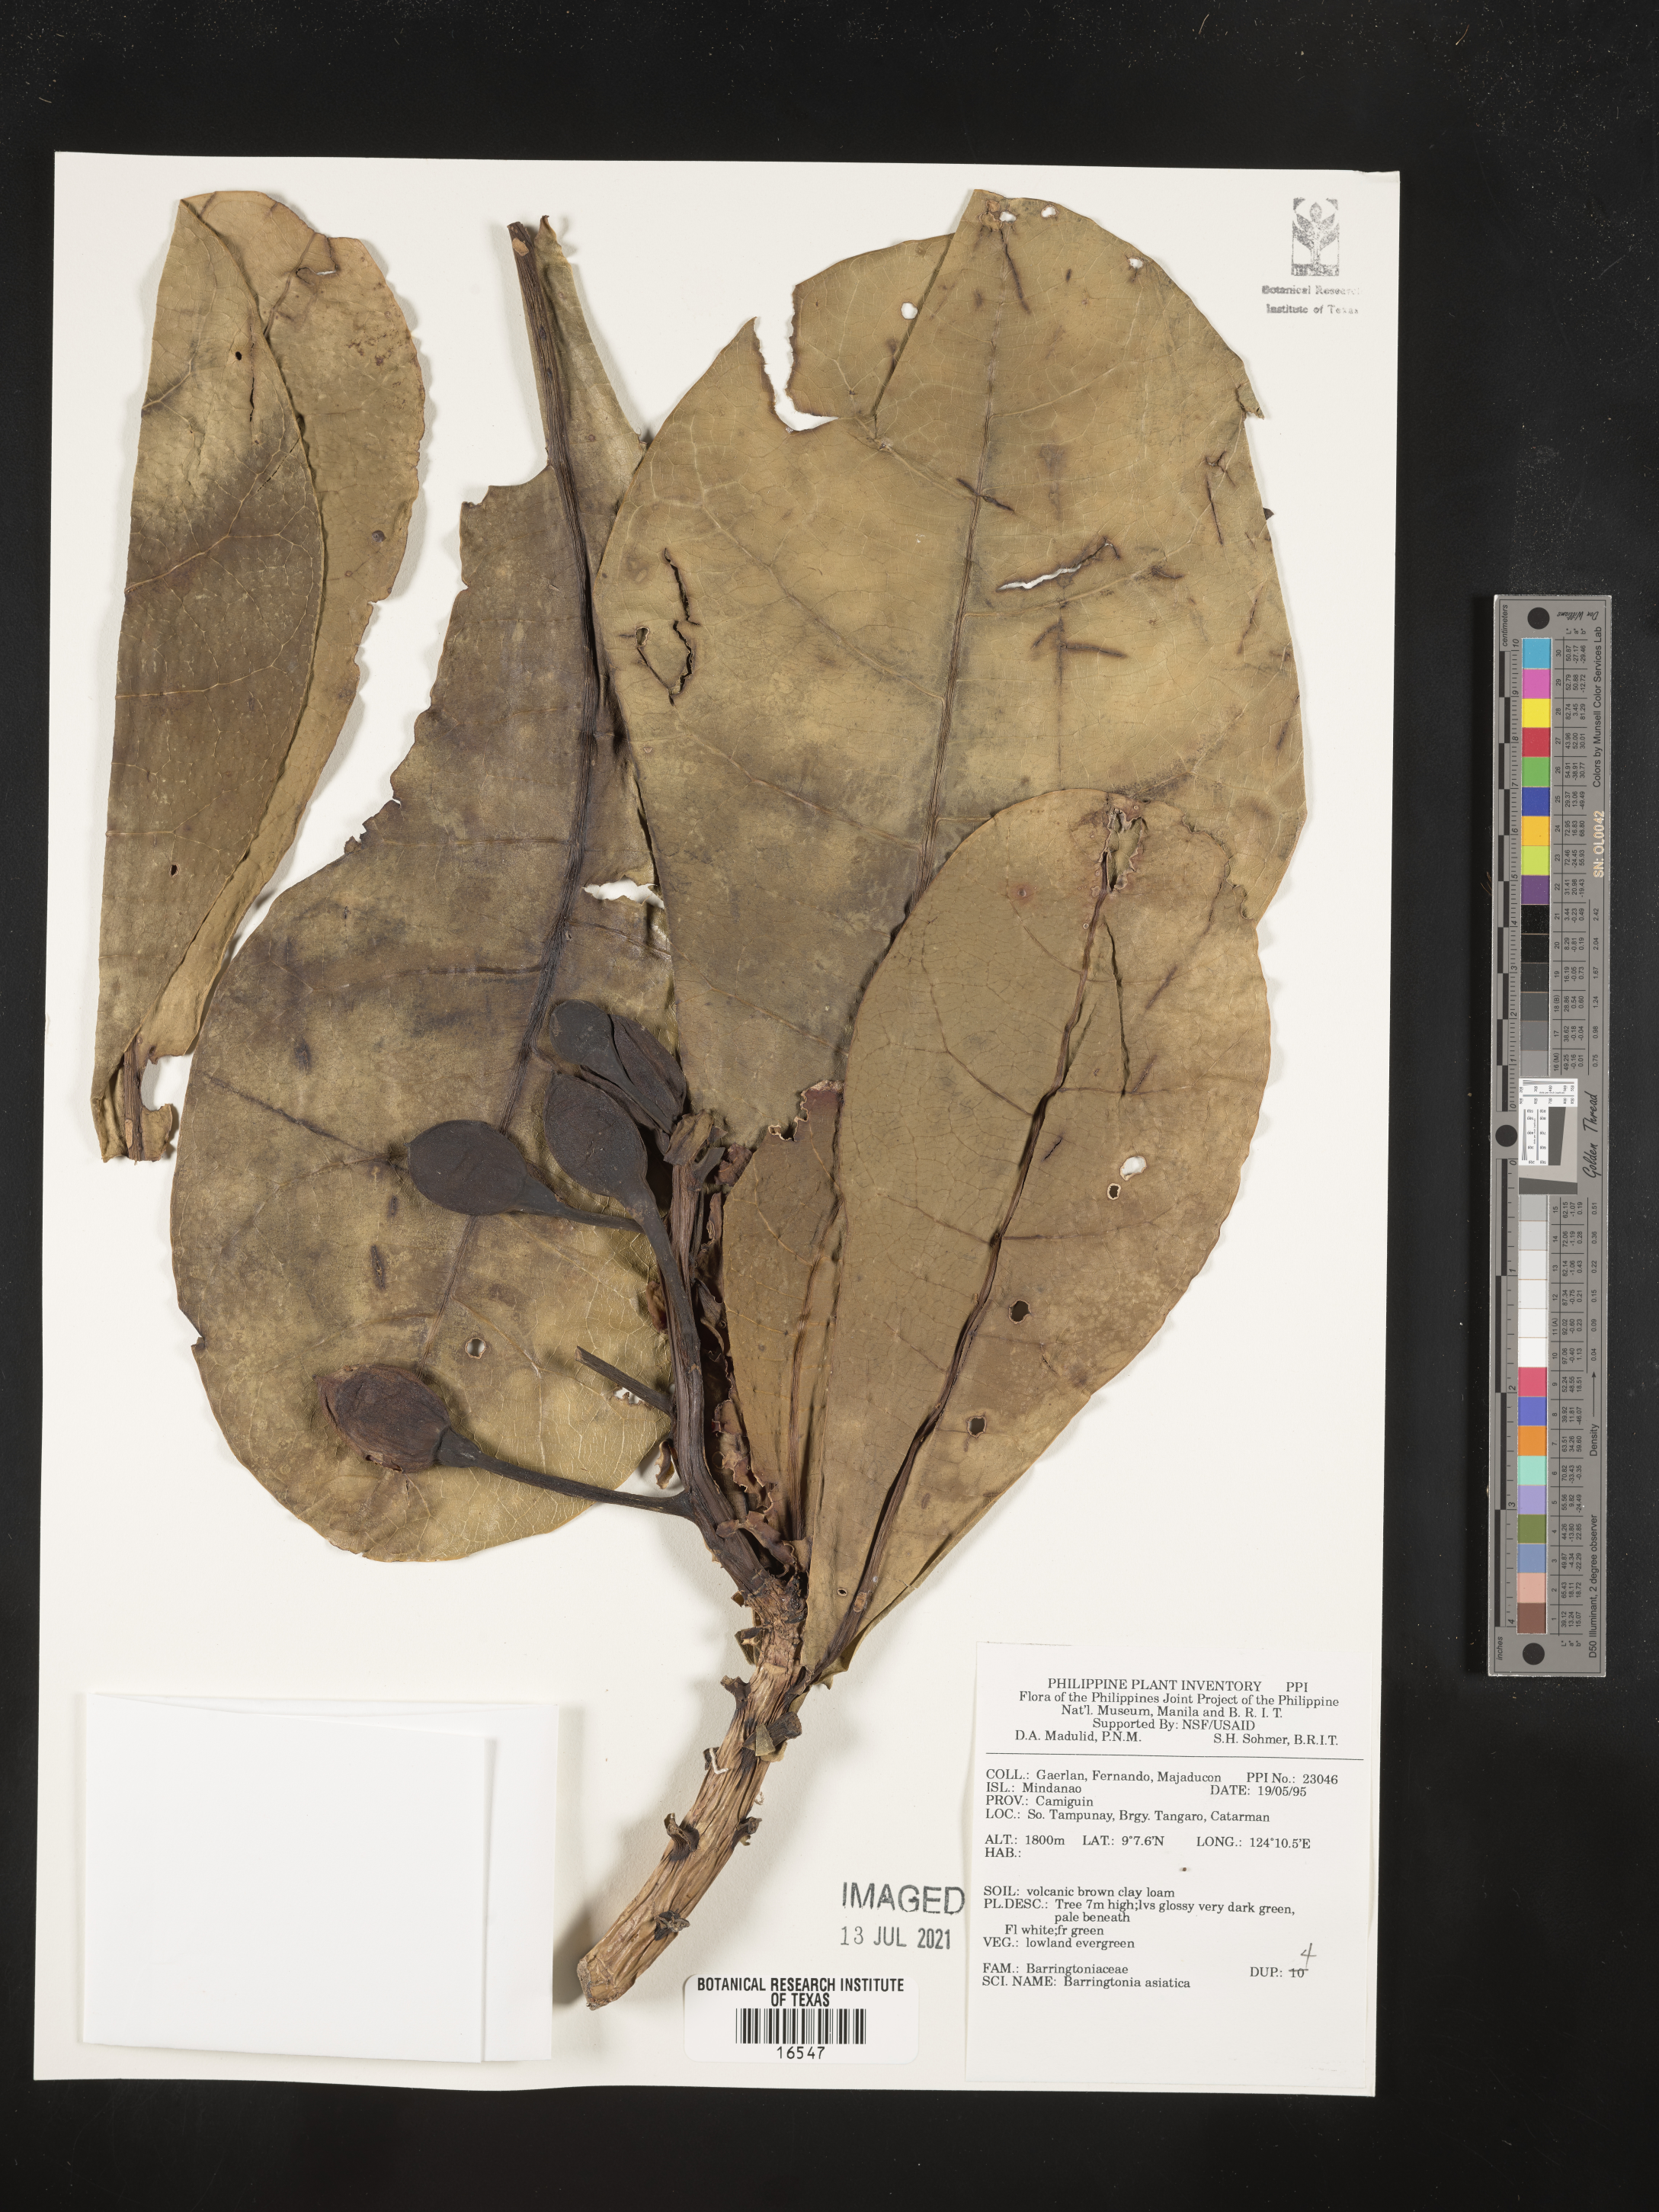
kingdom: Plantae
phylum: Tracheophyta
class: Magnoliopsida
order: Ericales
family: Lecythidaceae
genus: Barringtonia
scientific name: Barringtonia asiatica
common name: Mango-pine
